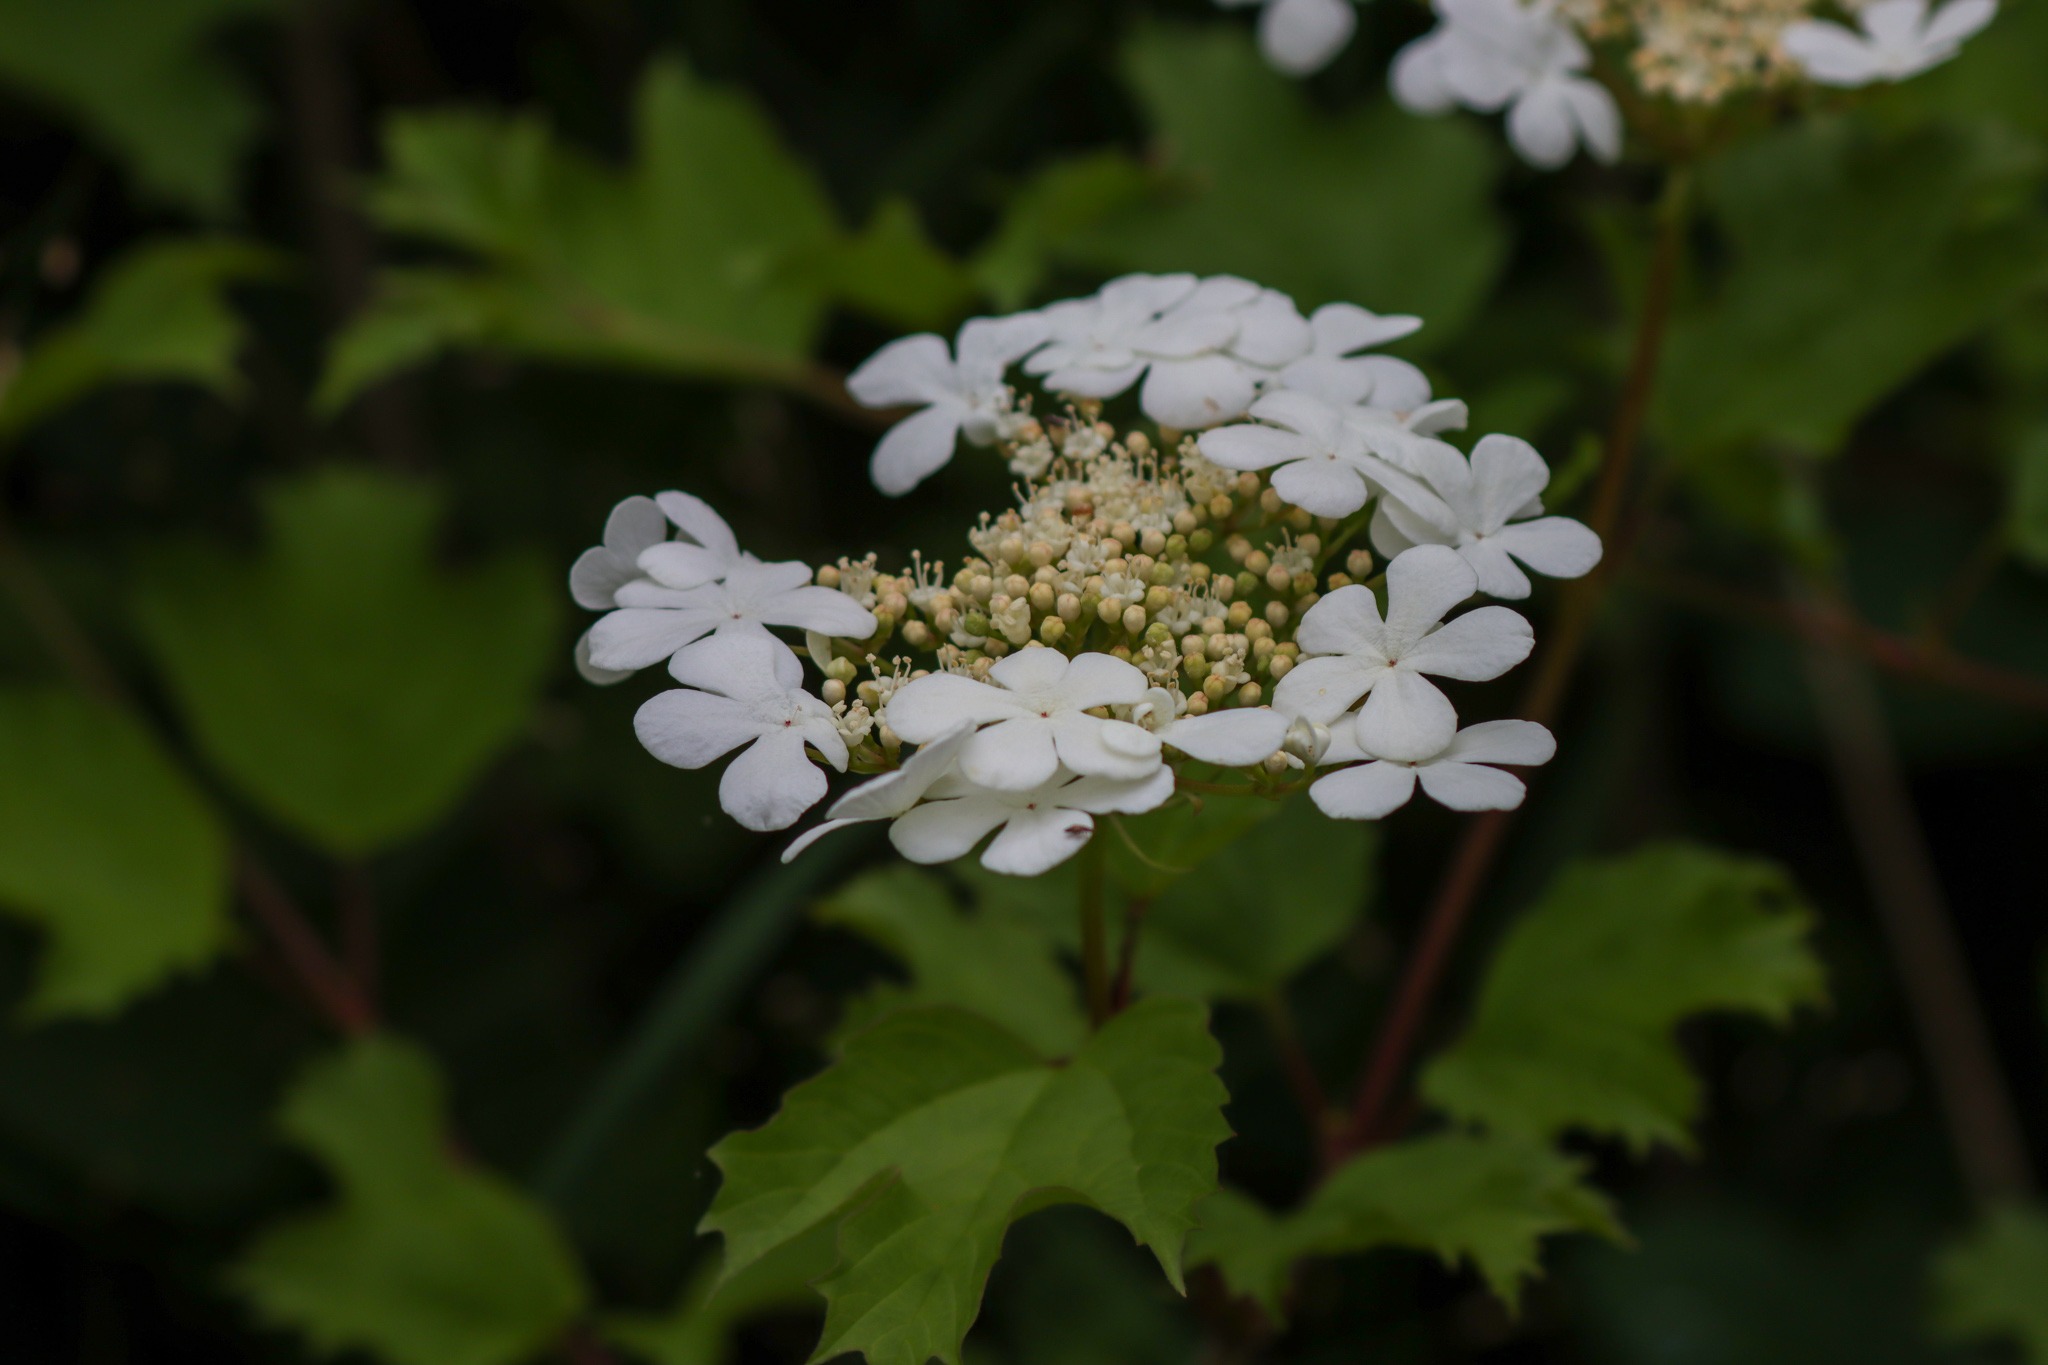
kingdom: Plantae
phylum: Tracheophyta
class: Magnoliopsida
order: Dipsacales
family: Viburnaceae
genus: Viburnum
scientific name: Viburnum opulus
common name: Kvalkved
